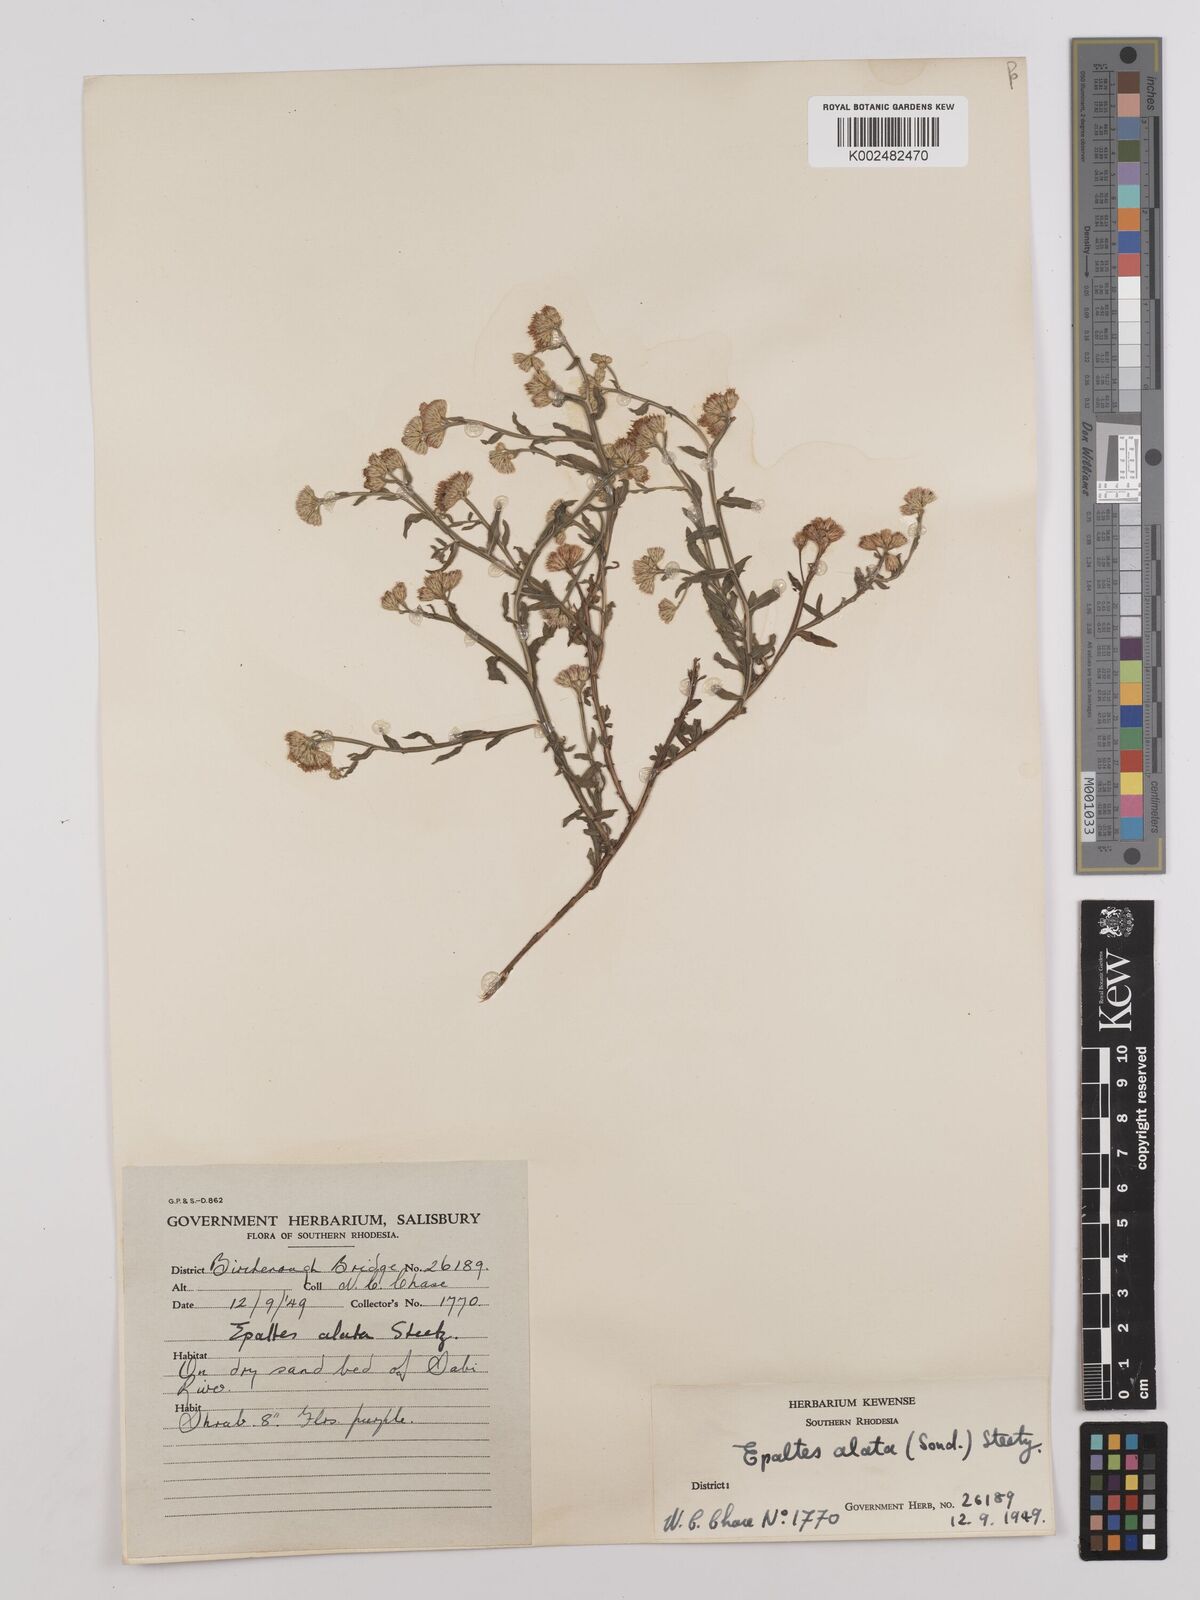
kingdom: Plantae
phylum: Tracheophyta
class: Magnoliopsida
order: Asterales
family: Asteraceae
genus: Litogyne
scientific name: Litogyne gariepina
